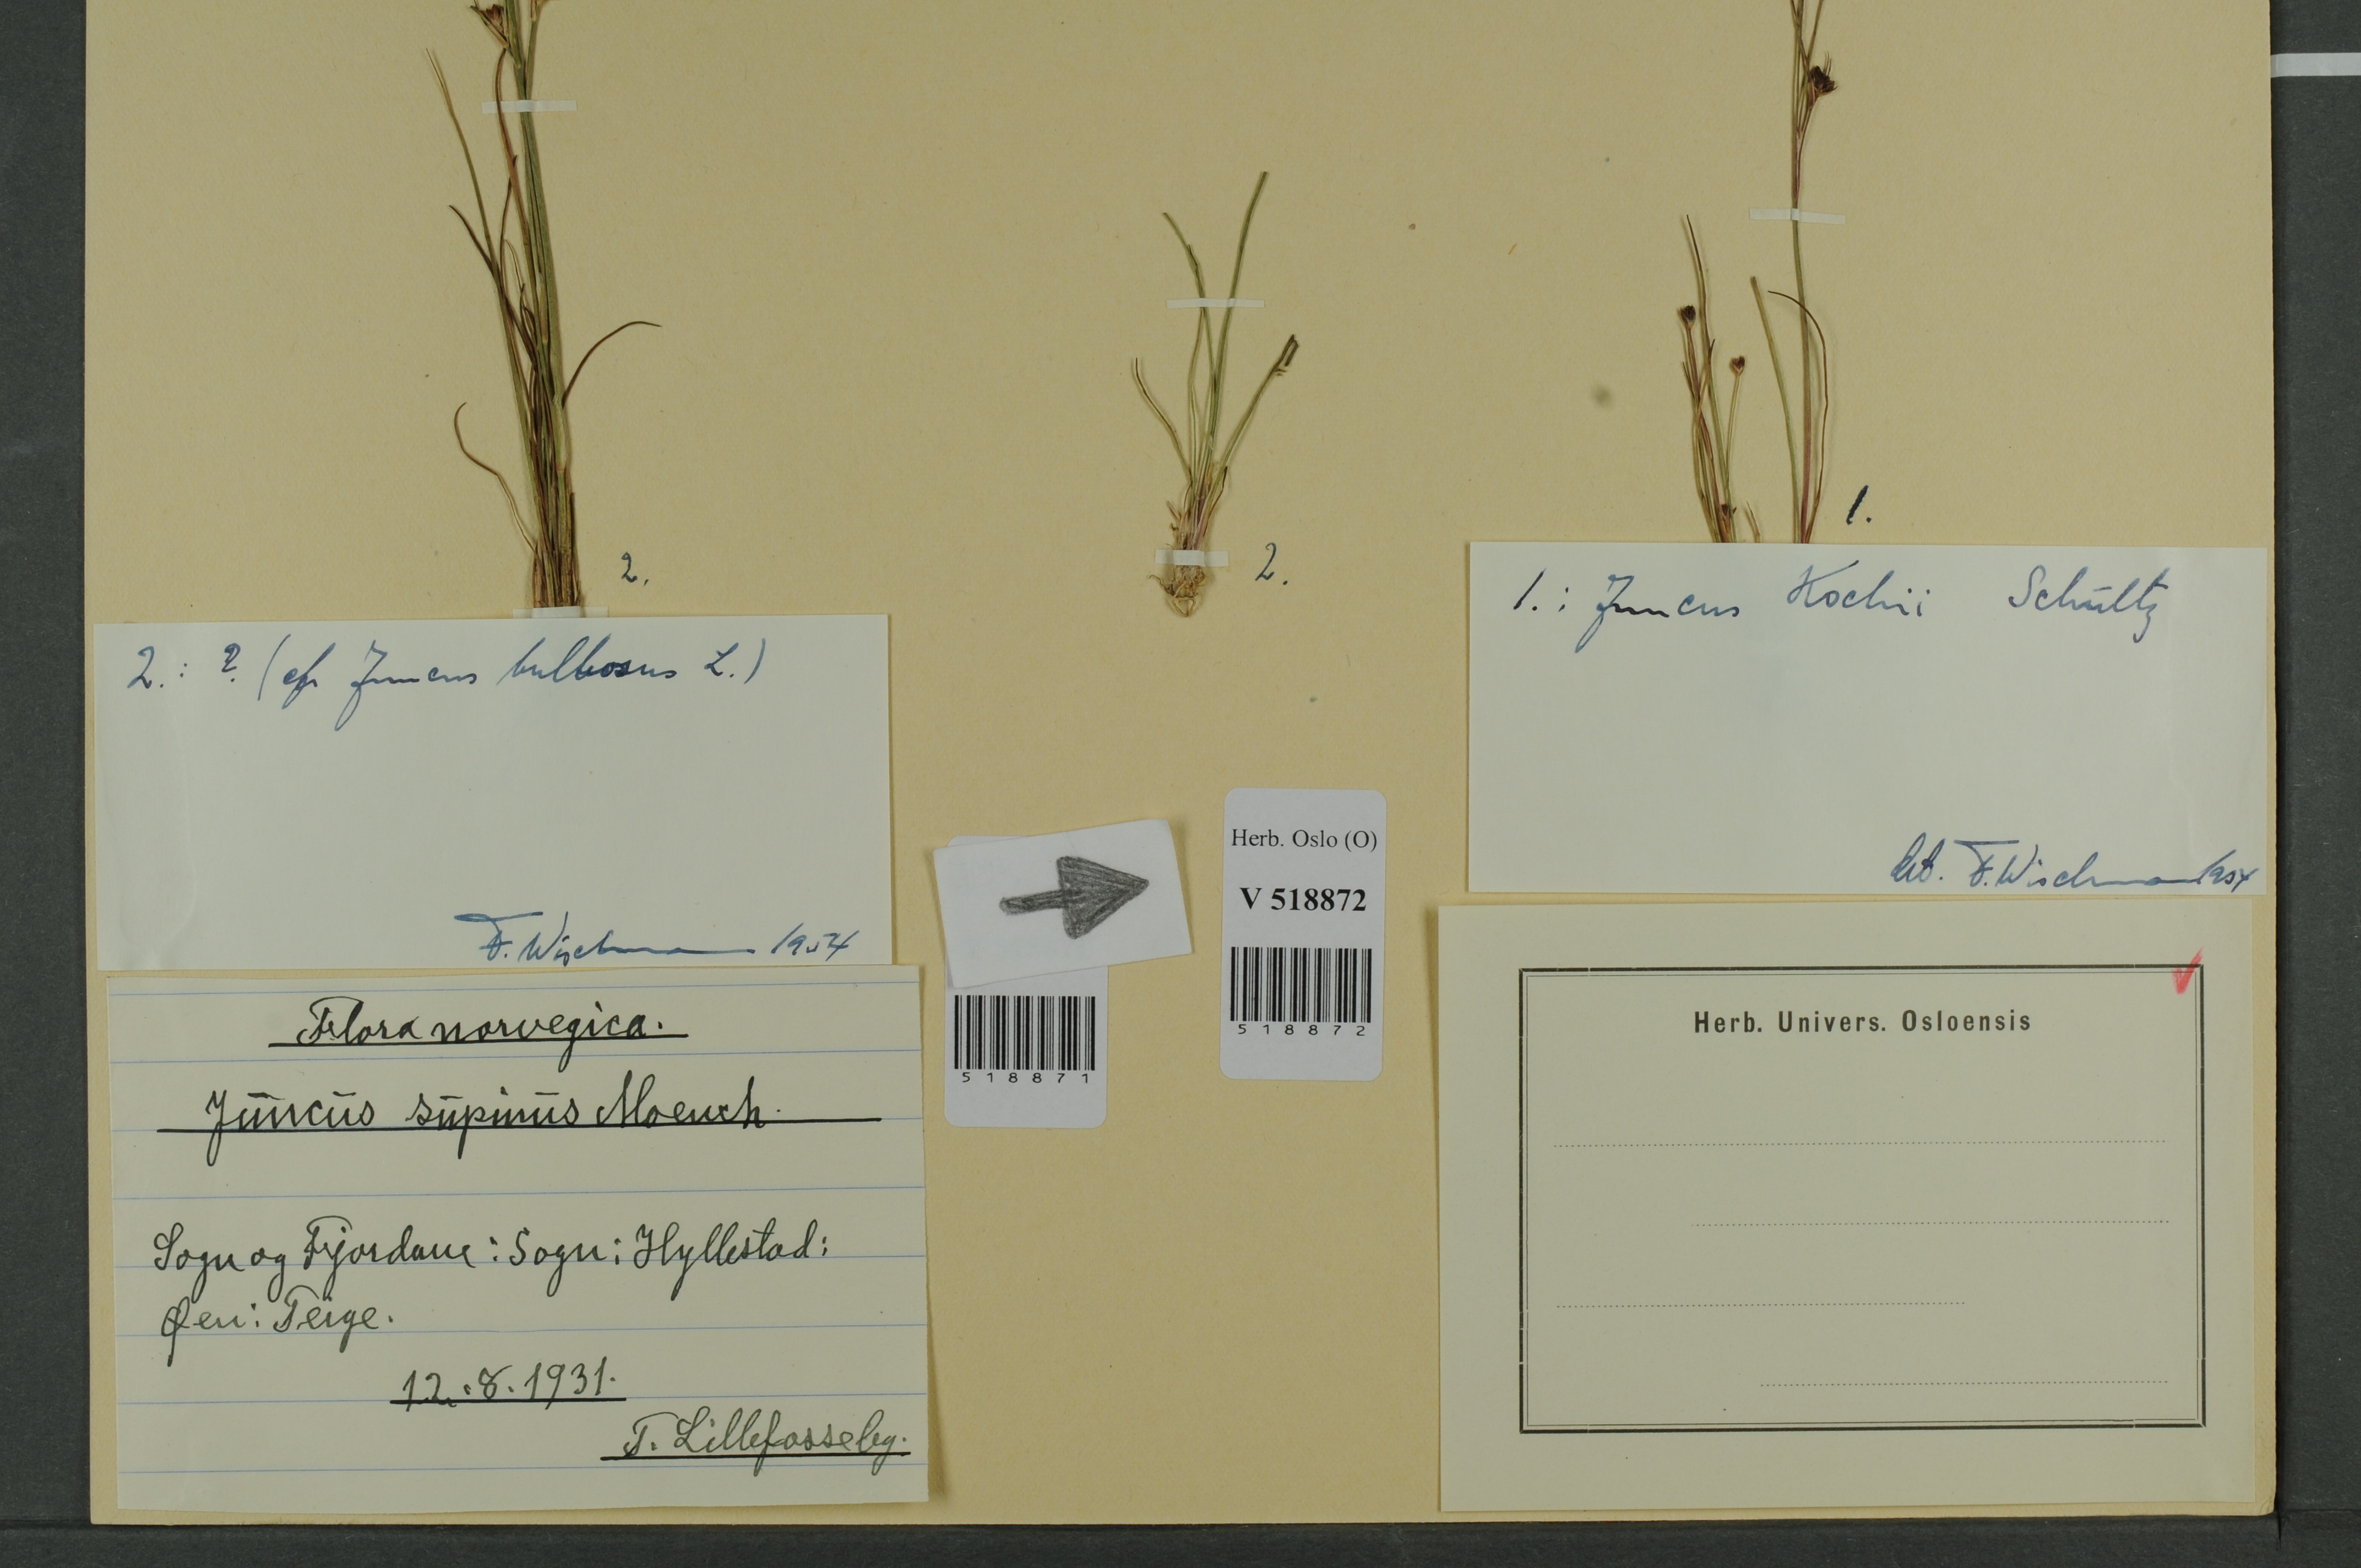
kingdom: Plantae
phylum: Tracheophyta
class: Liliopsida
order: Poales
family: Juncaceae
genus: Juncus
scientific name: Juncus bulbosus
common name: Bulbous rush
